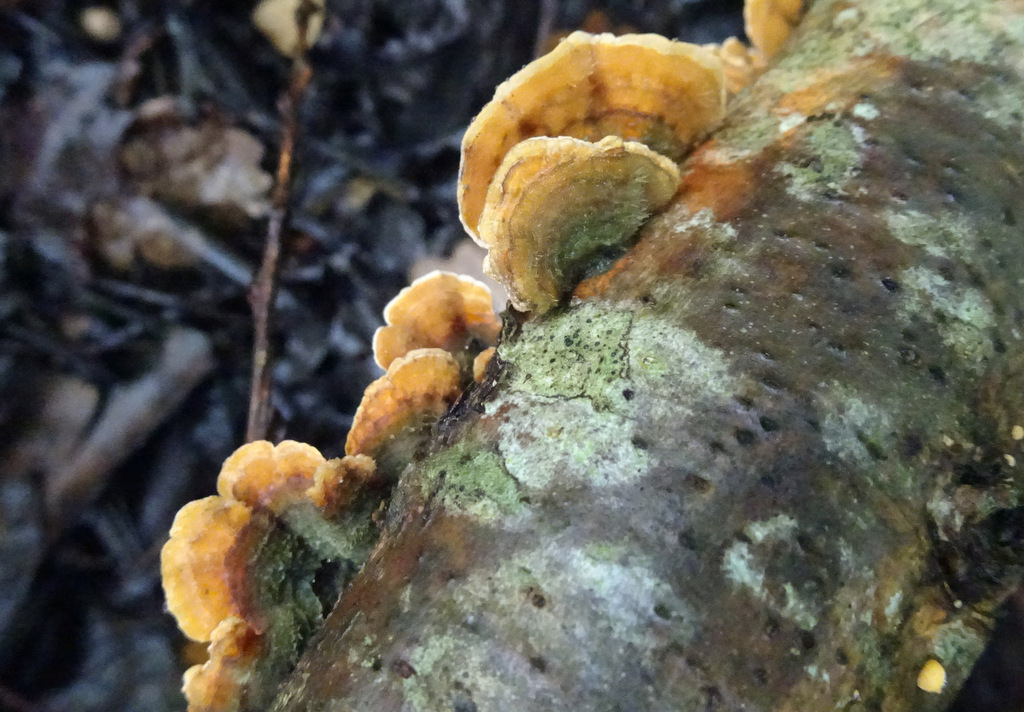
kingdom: Fungi
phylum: Basidiomycota
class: Agaricomycetes
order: Russulales
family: Stereaceae
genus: Stereum
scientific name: Stereum hirsutum
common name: håret lædersvamp
